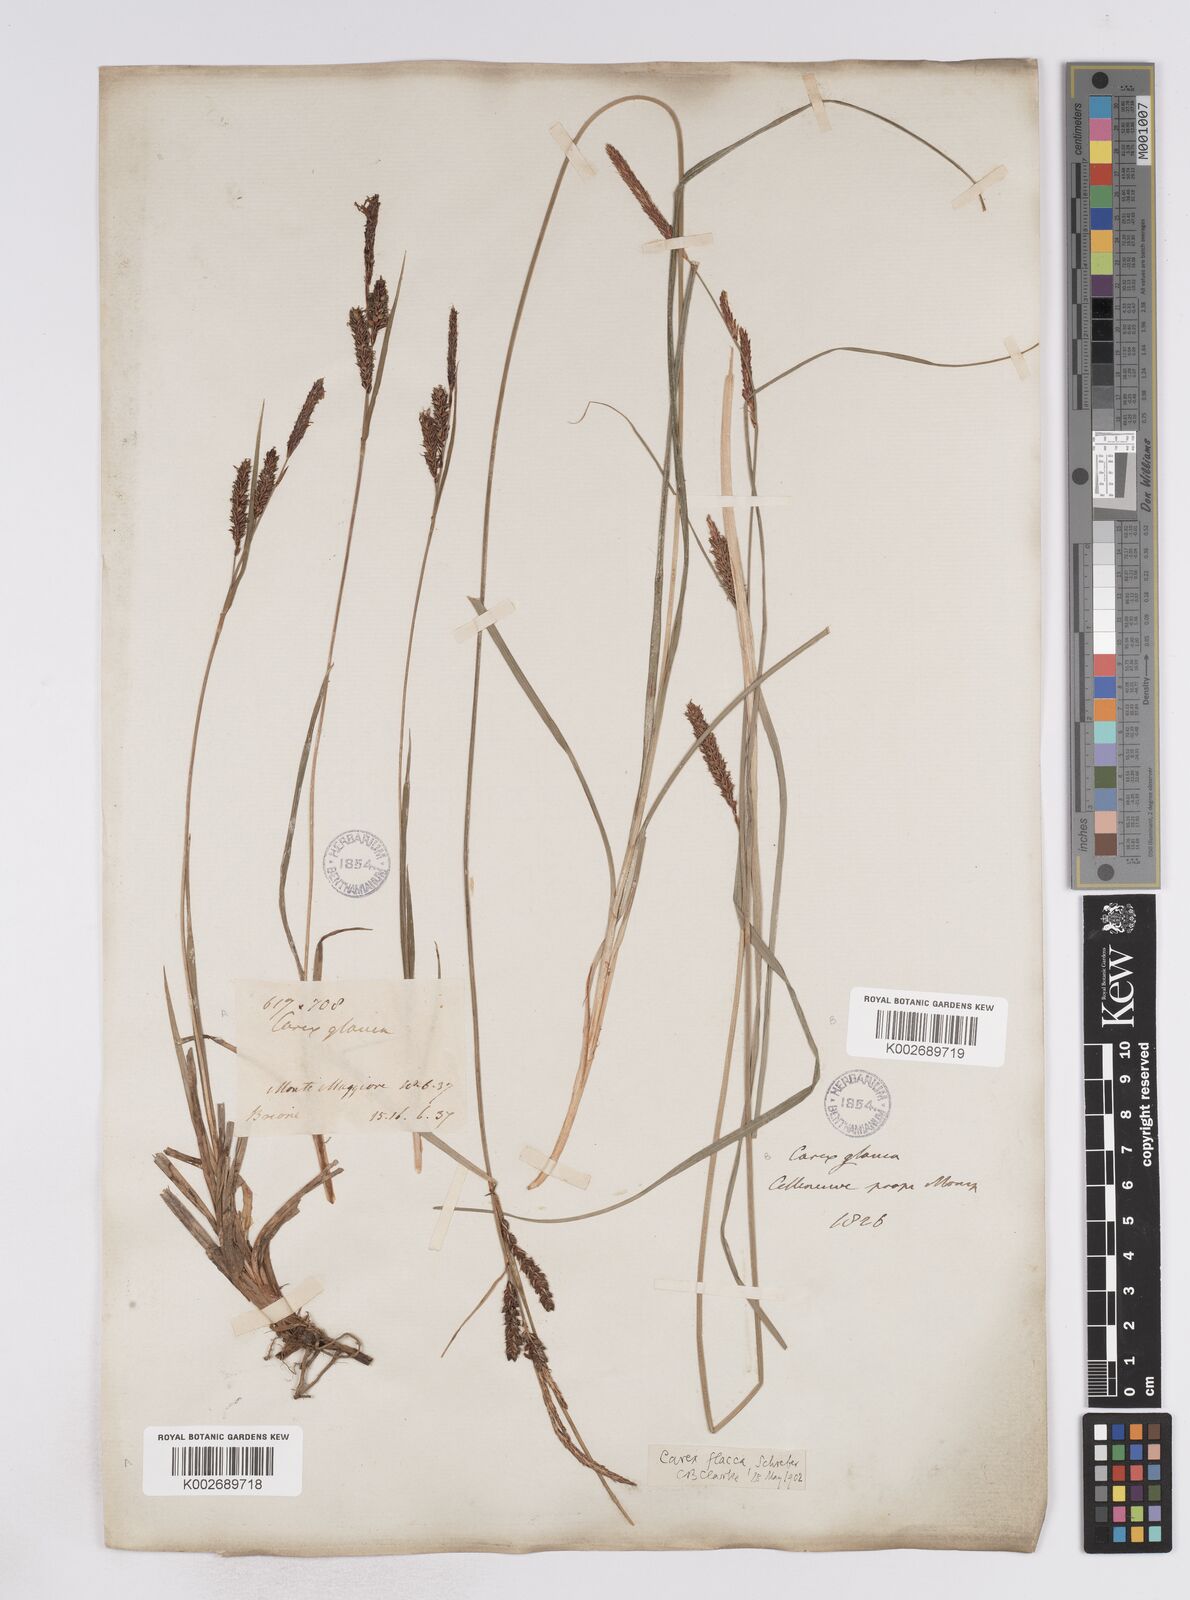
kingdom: Plantae
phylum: Tracheophyta
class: Liliopsida
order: Poales
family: Cyperaceae
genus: Carex
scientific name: Carex flacca
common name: Glaucous sedge
